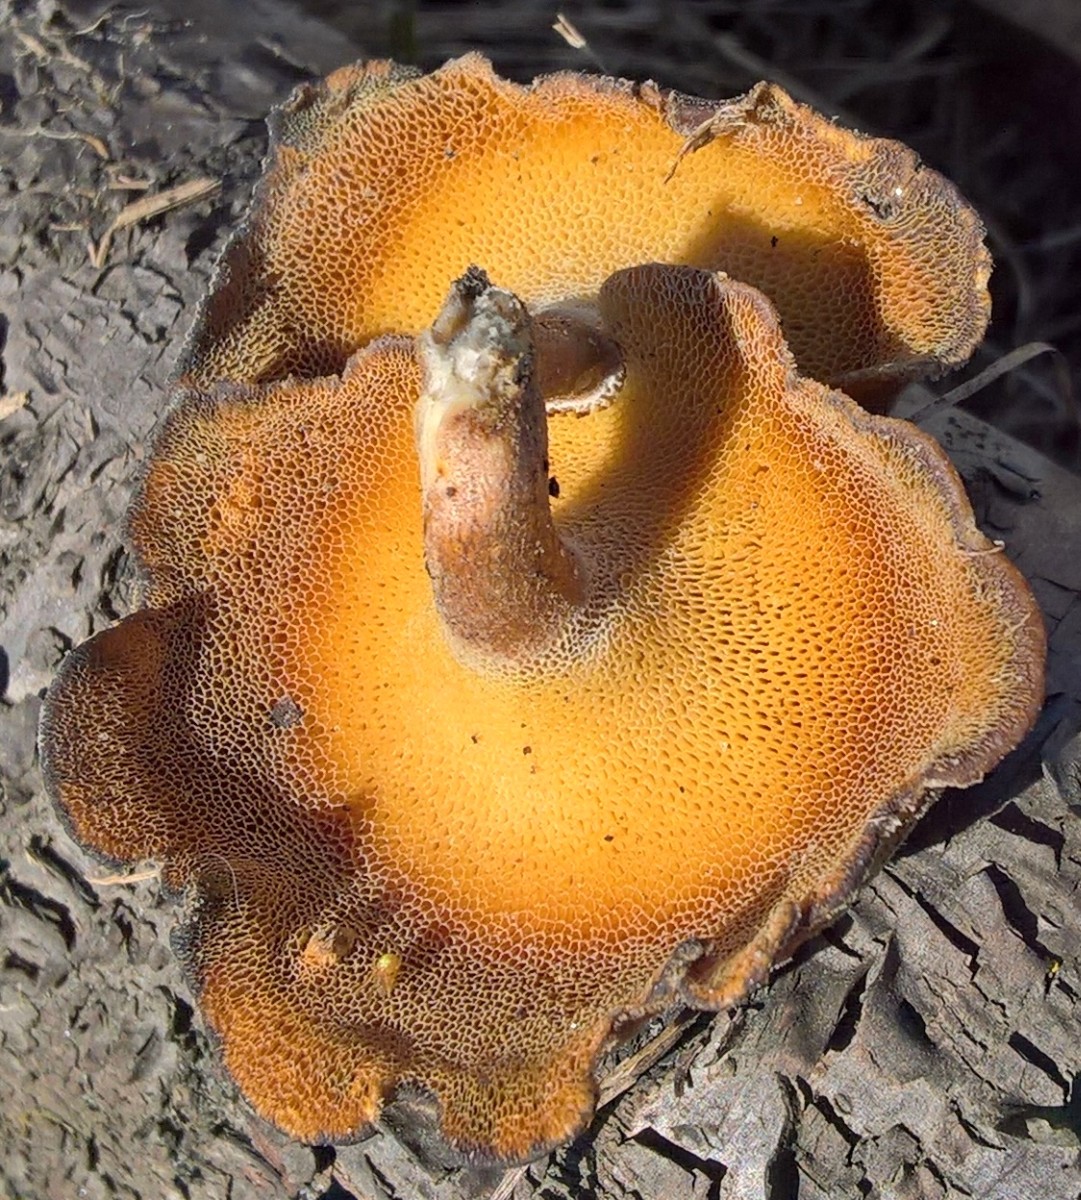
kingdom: Fungi
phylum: Basidiomycota
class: Agaricomycetes
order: Polyporales
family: Polyporaceae
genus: Lentinus
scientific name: Lentinus brumalis
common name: vinter-stilkporesvamp
